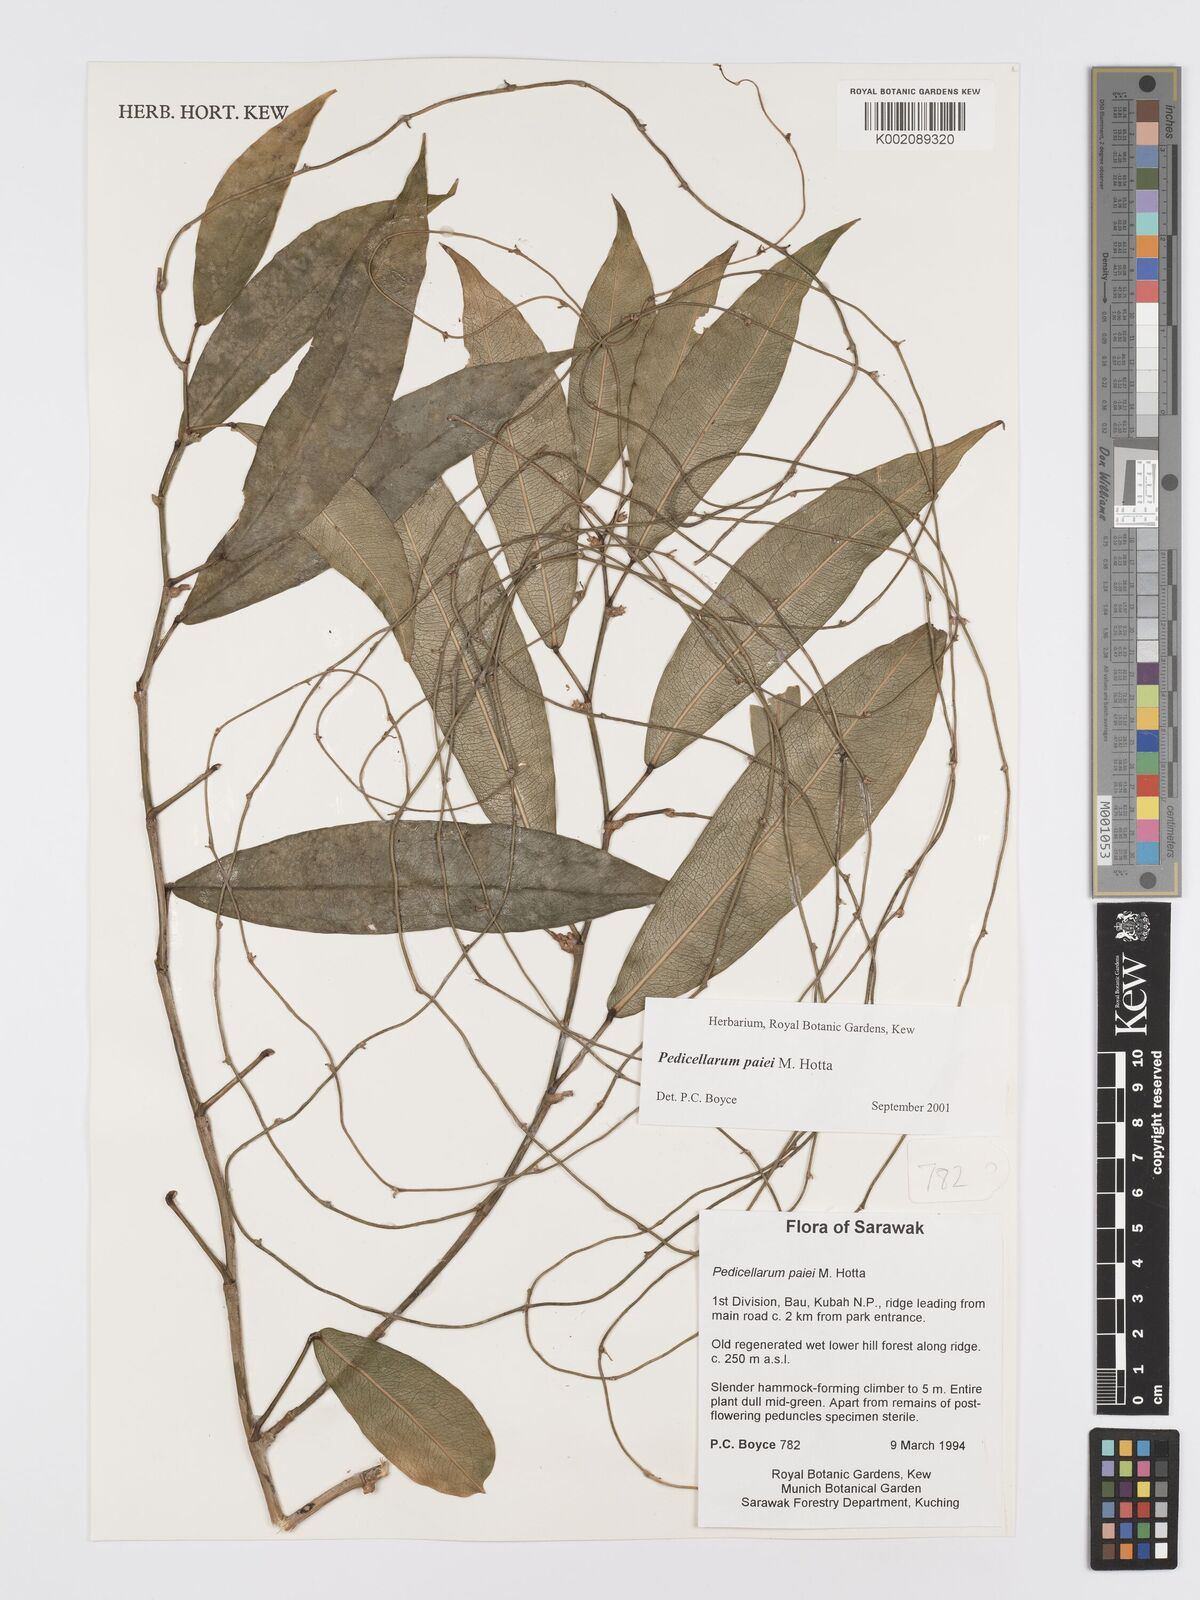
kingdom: Plantae
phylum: Tracheophyta
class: Liliopsida
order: Alismatales
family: Araceae
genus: Pothos
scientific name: Pothos paiei
